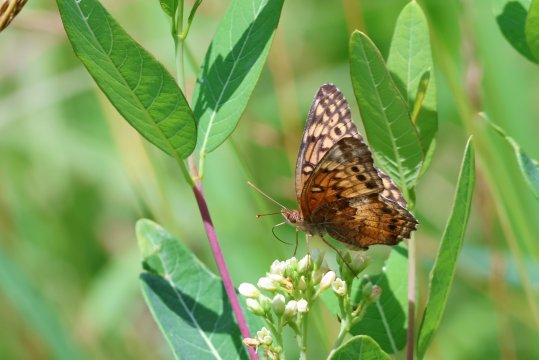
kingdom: Animalia
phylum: Arthropoda
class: Insecta
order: Lepidoptera
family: Nymphalidae
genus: Euptoieta
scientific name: Euptoieta claudia
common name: Variegated Fritillary
